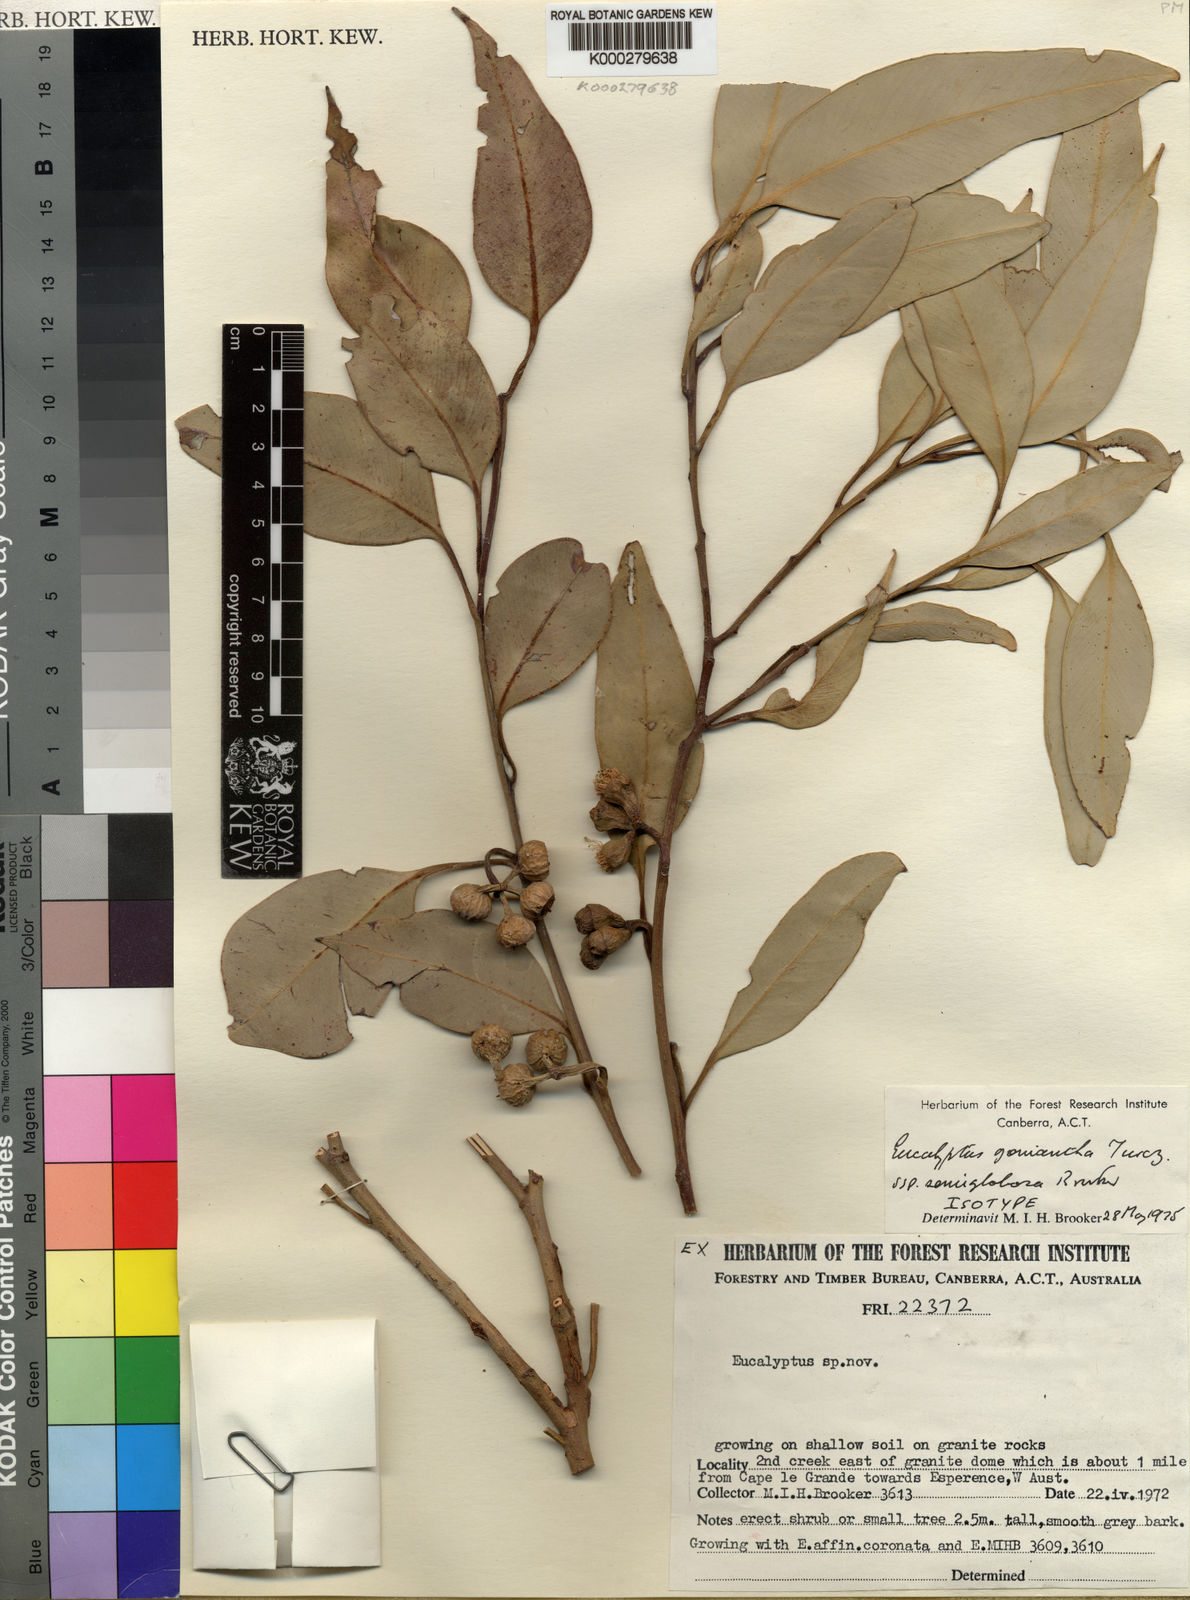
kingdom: Plantae
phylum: Tracheophyta
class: Magnoliopsida
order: Myrtales
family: Myrtaceae
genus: Eucalyptus
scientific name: Eucalyptus semiglobosa
